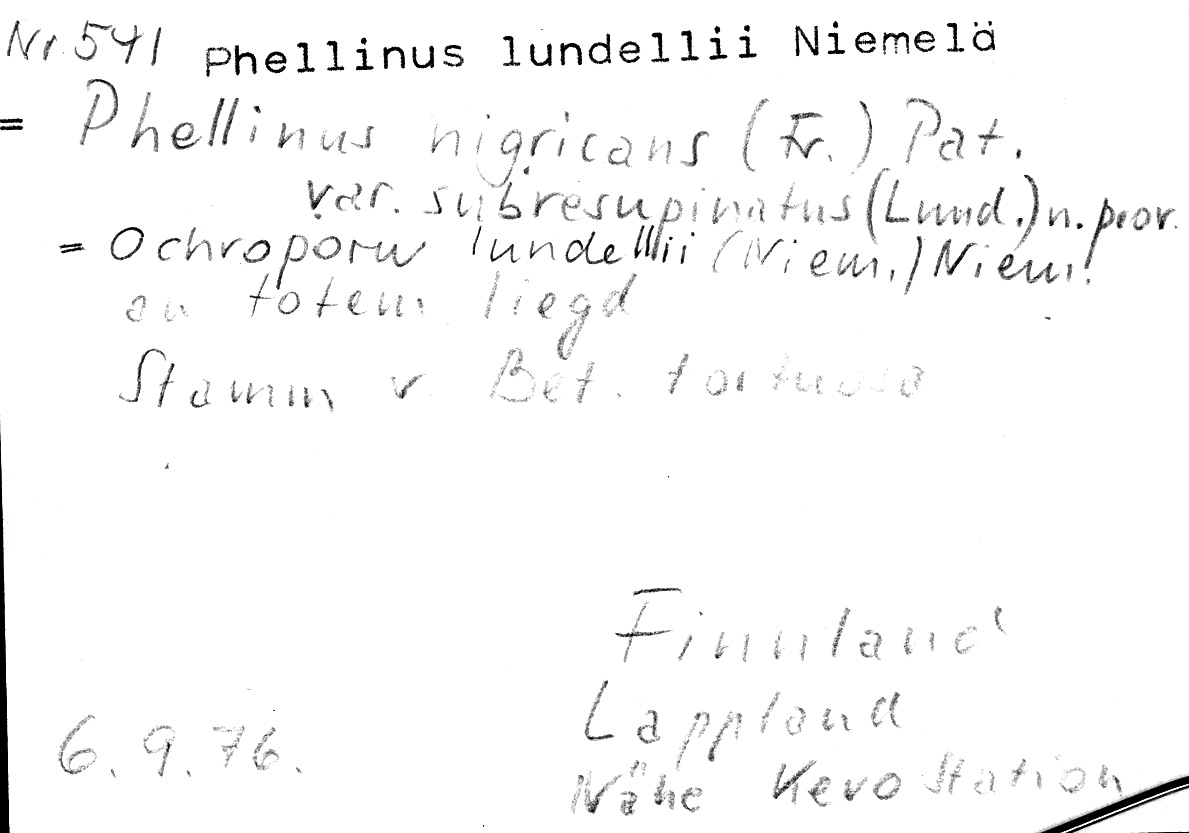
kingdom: Plantae
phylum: Tracheophyta
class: Magnoliopsida
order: Fagales
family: Betulaceae
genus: Betula
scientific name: Betula pubescens
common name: Downy birch
